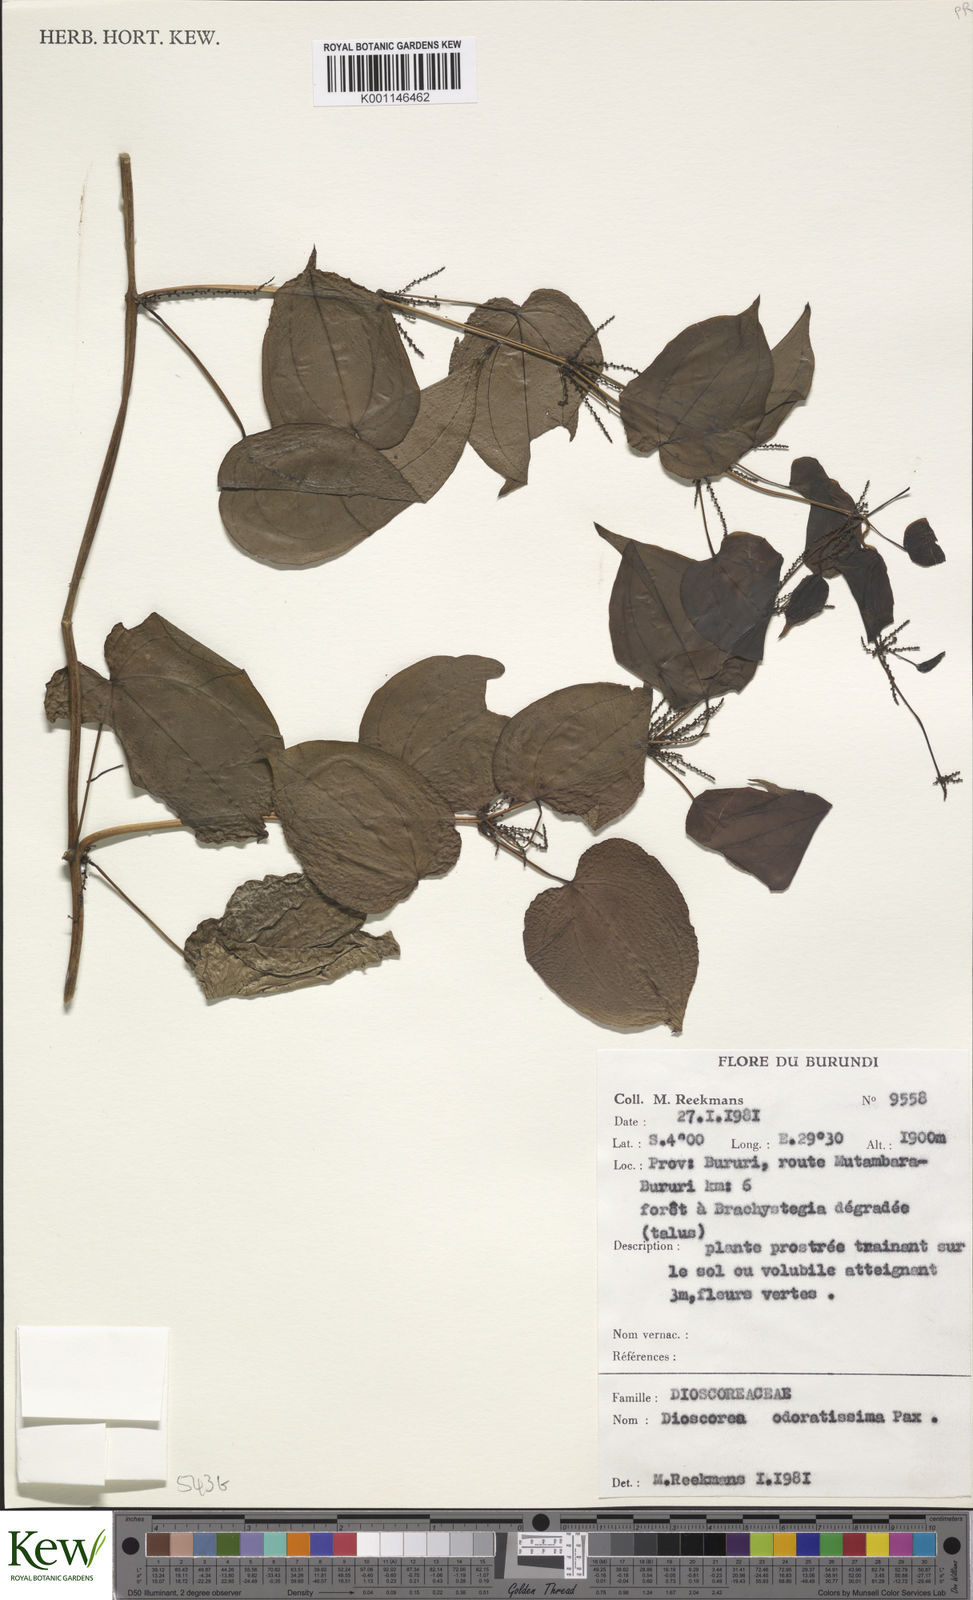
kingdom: Plantae
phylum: Tracheophyta
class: Liliopsida
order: Dioscoreales
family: Dioscoreaceae
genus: Dioscorea
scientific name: Dioscorea praehensilis
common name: Bush yam
